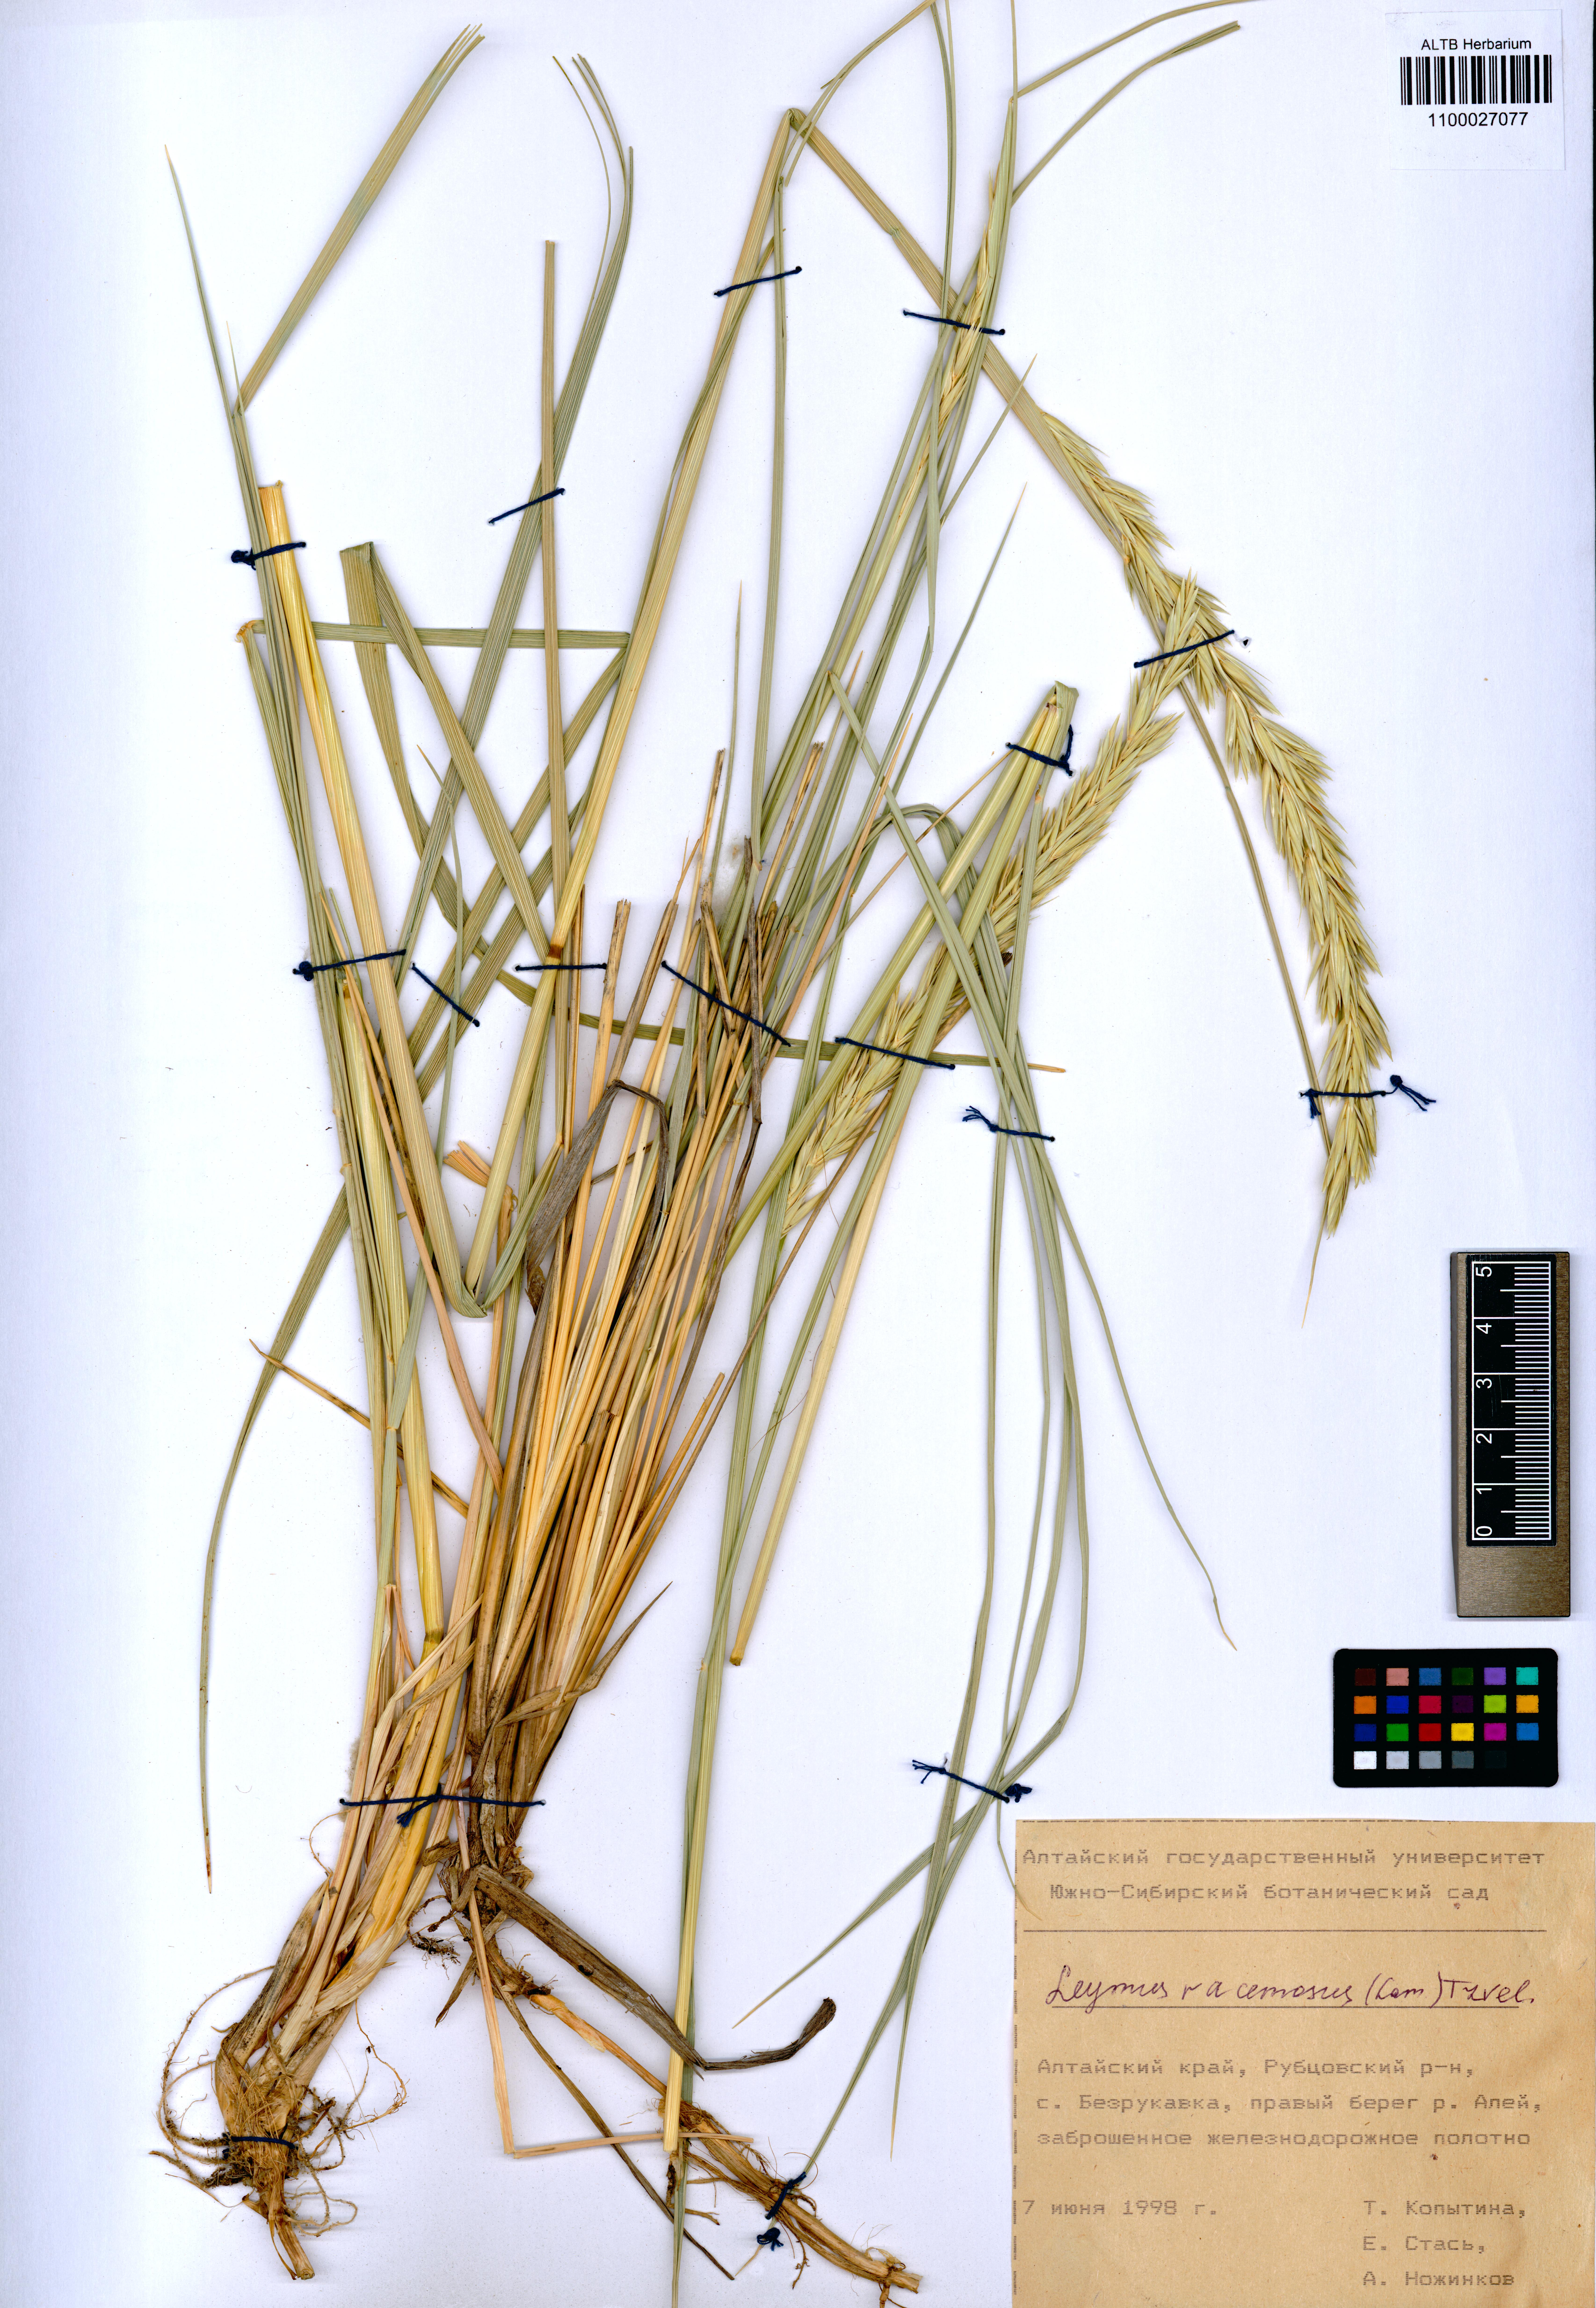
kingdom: Plantae
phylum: Tracheophyta
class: Liliopsida
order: Poales
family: Poaceae
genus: Leymus
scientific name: Leymus racemosus
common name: Mammoth wildrye
